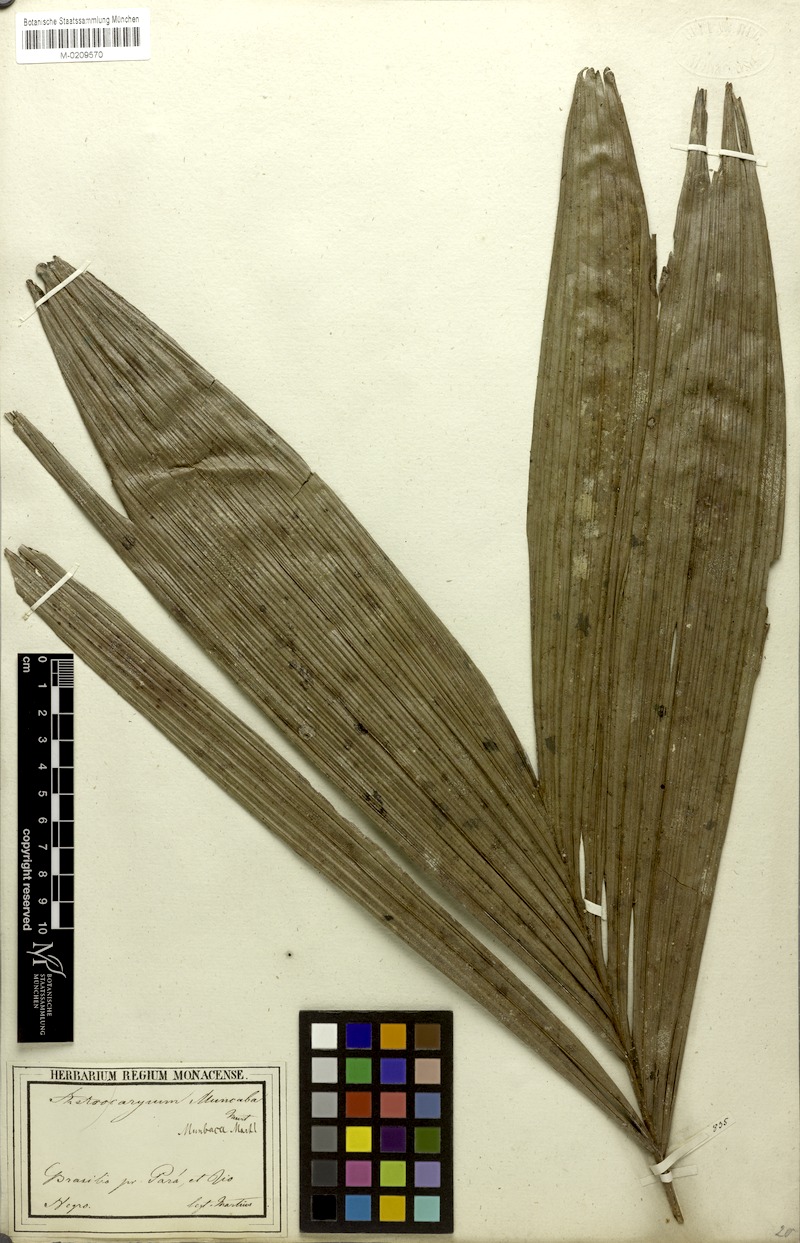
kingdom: Plantae
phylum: Tracheophyta
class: Liliopsida
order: Arecales
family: Arecaceae
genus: Astrocaryum
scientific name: Astrocaryum aculeatum
